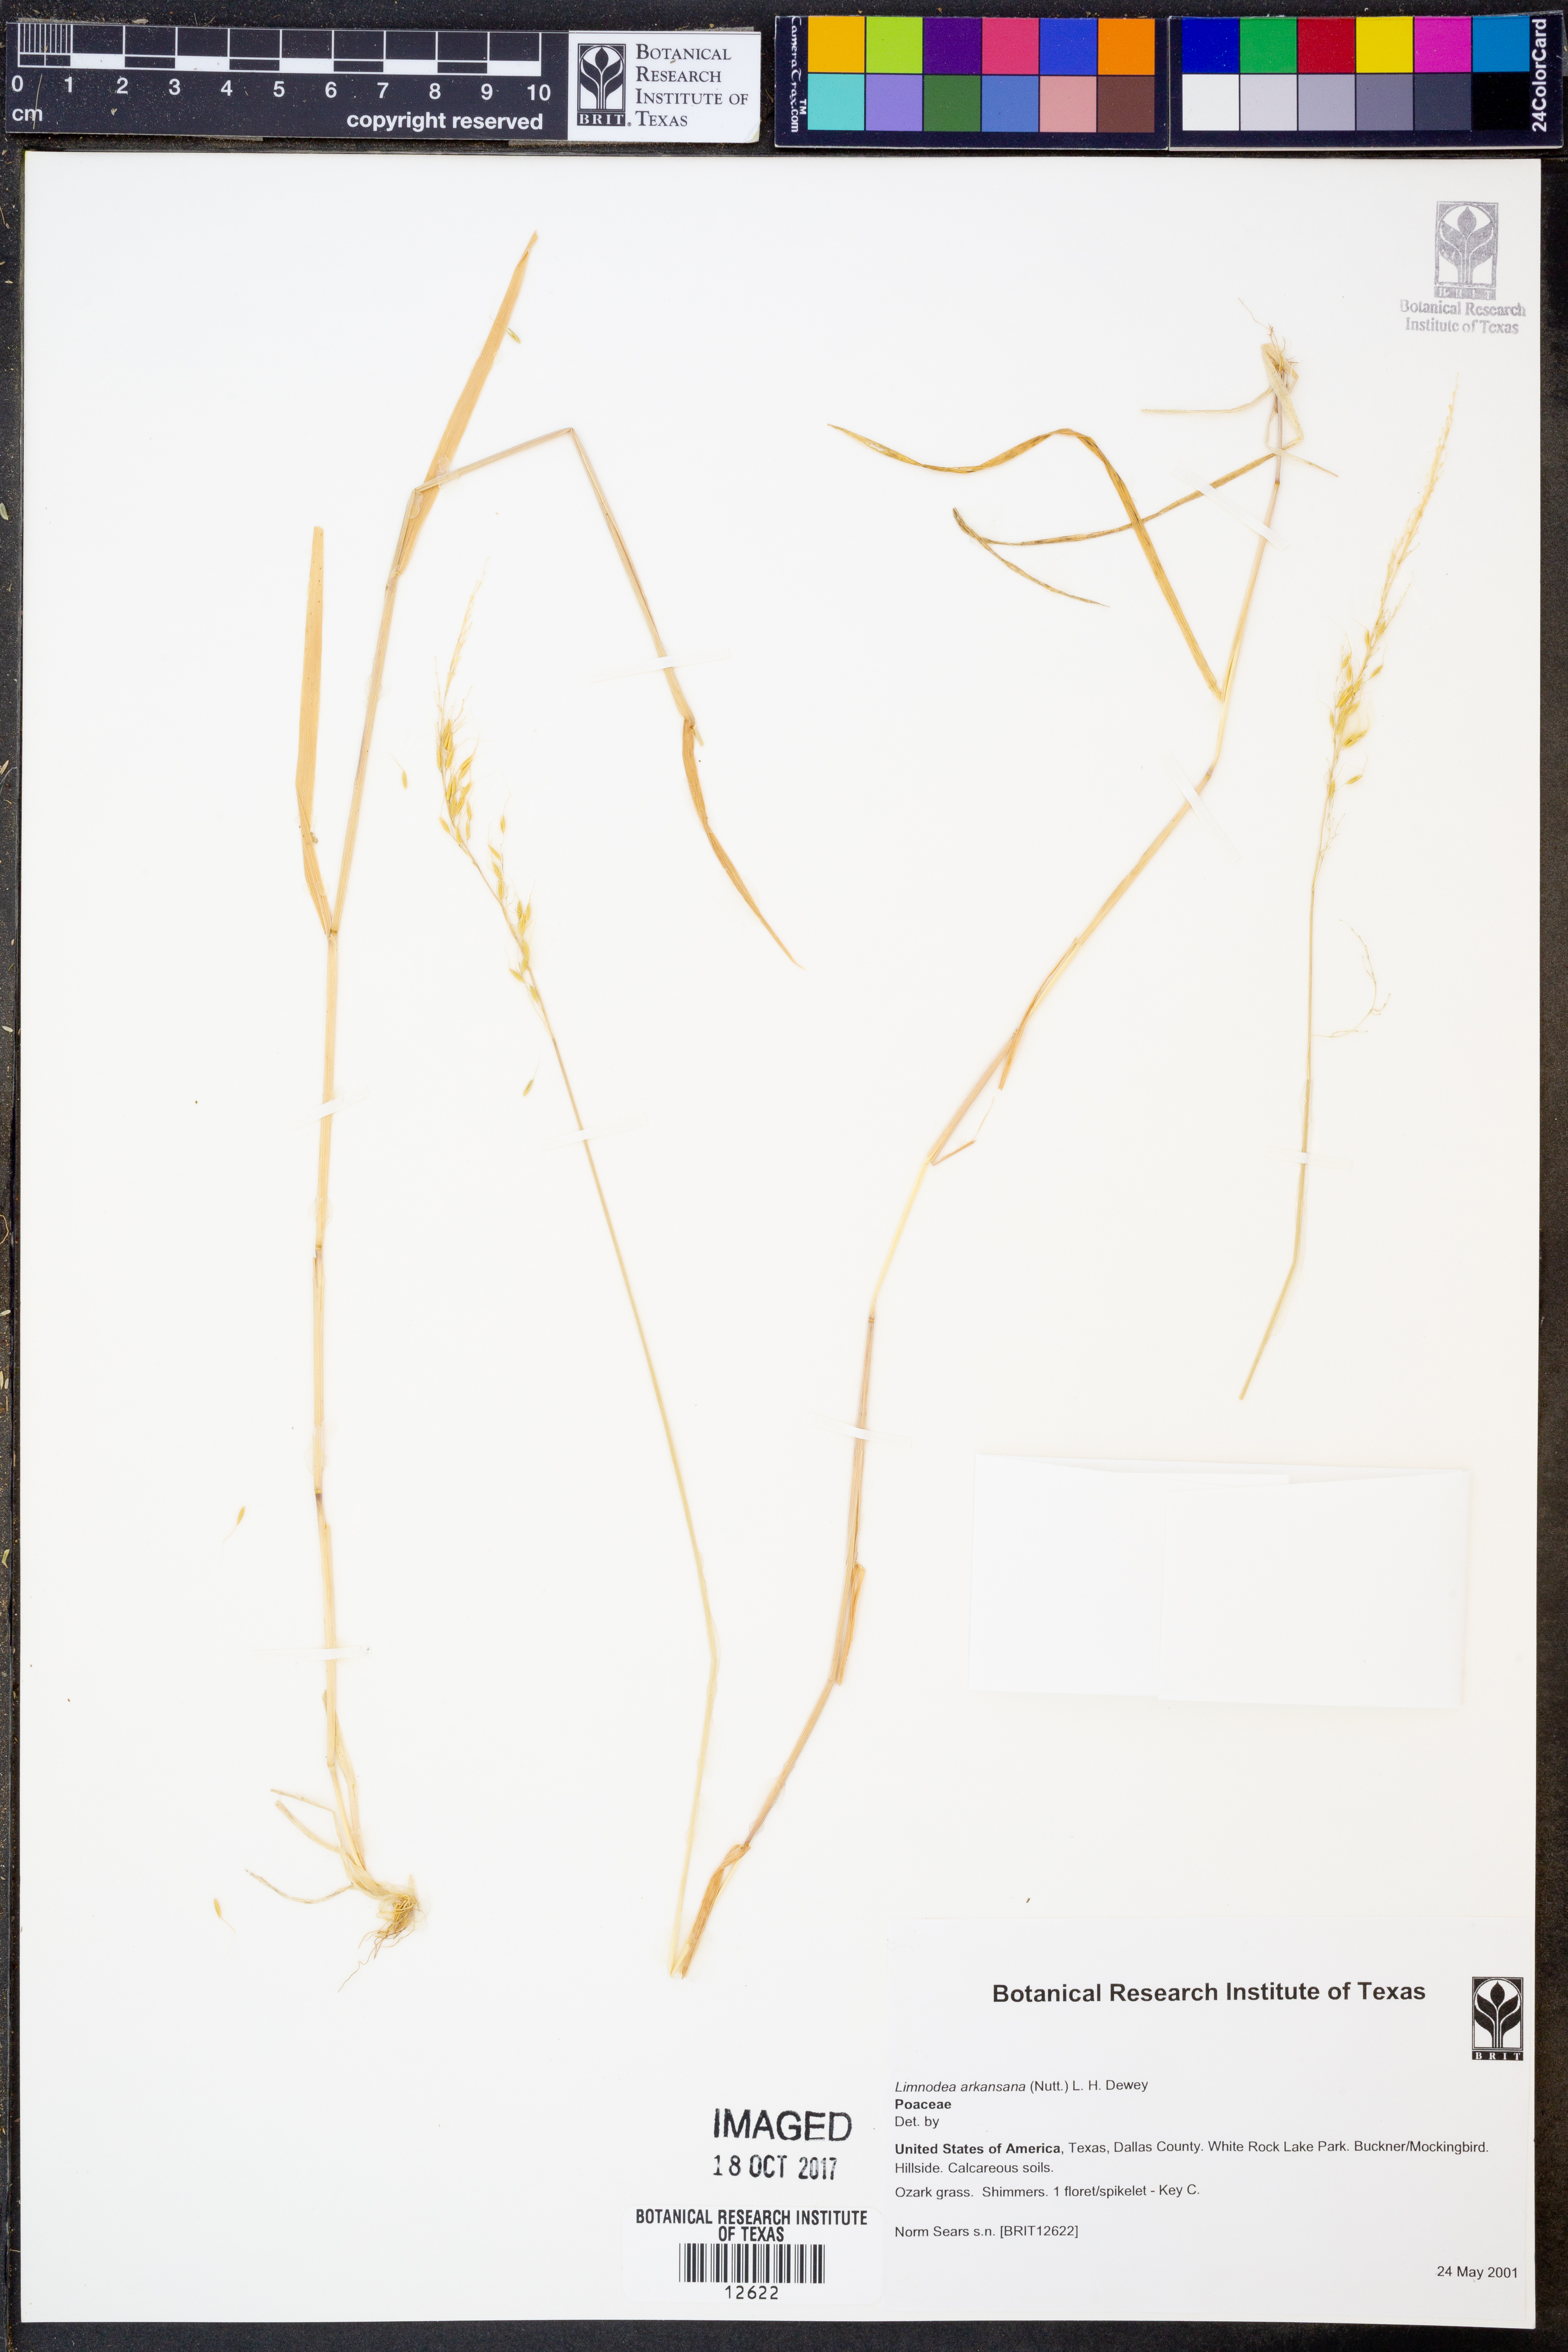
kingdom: Plantae
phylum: Tracheophyta
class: Liliopsida
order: Poales
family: Poaceae
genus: Limnodea
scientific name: Limnodea arkansana
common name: Ozark-grass
